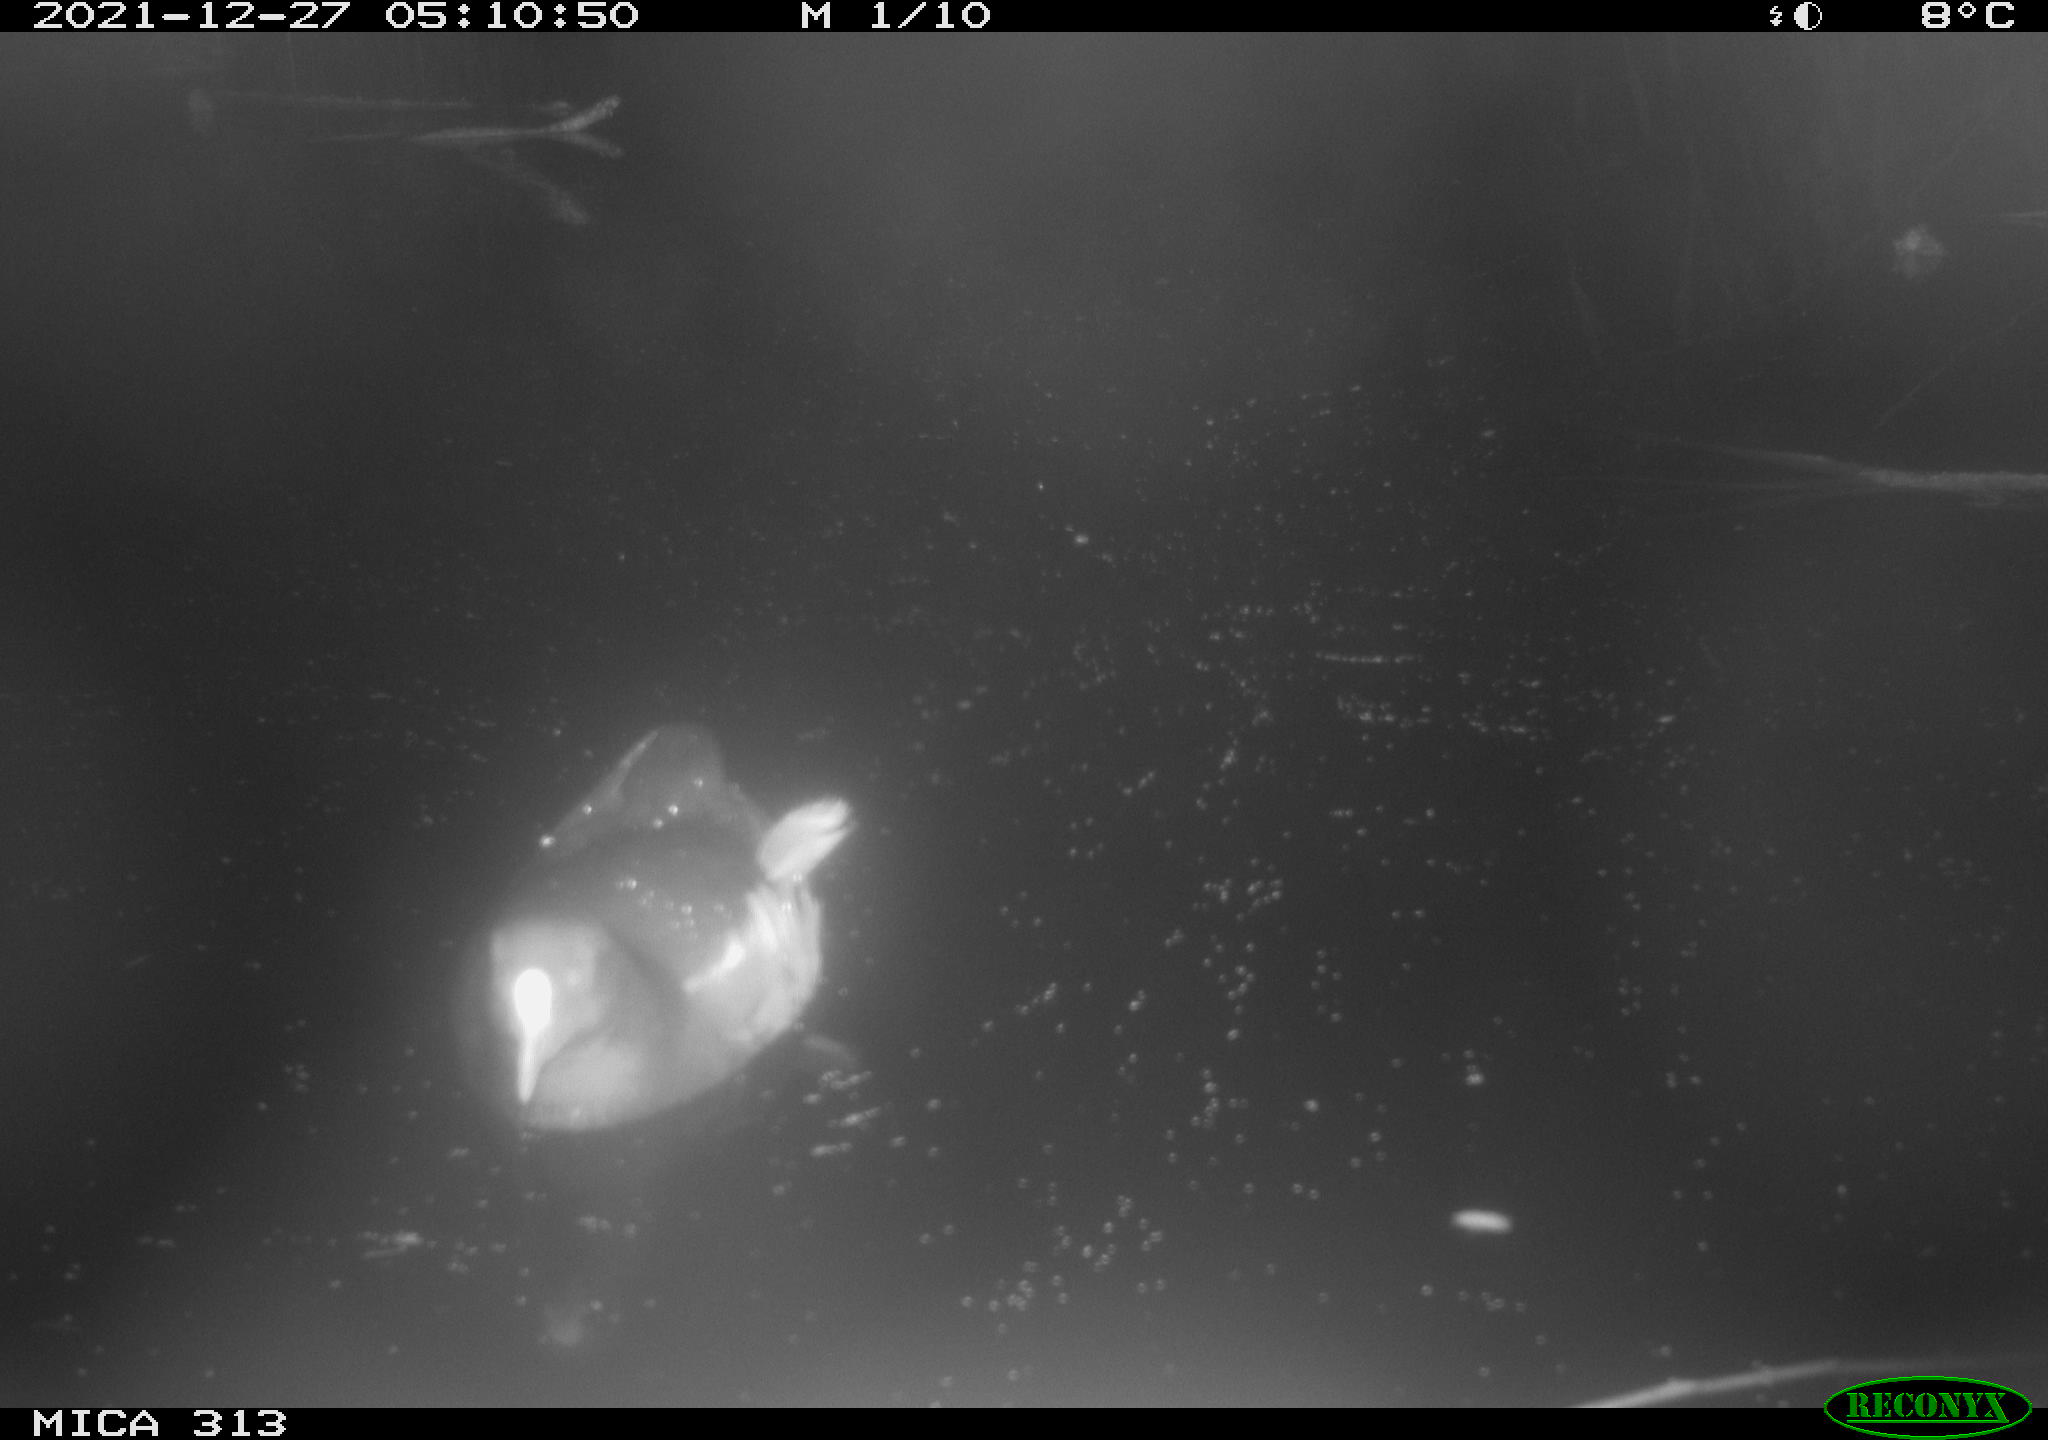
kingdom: Animalia
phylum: Chordata
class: Aves
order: Gruiformes
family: Rallidae
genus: Gallinula
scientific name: Gallinula chloropus
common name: Common moorhen
